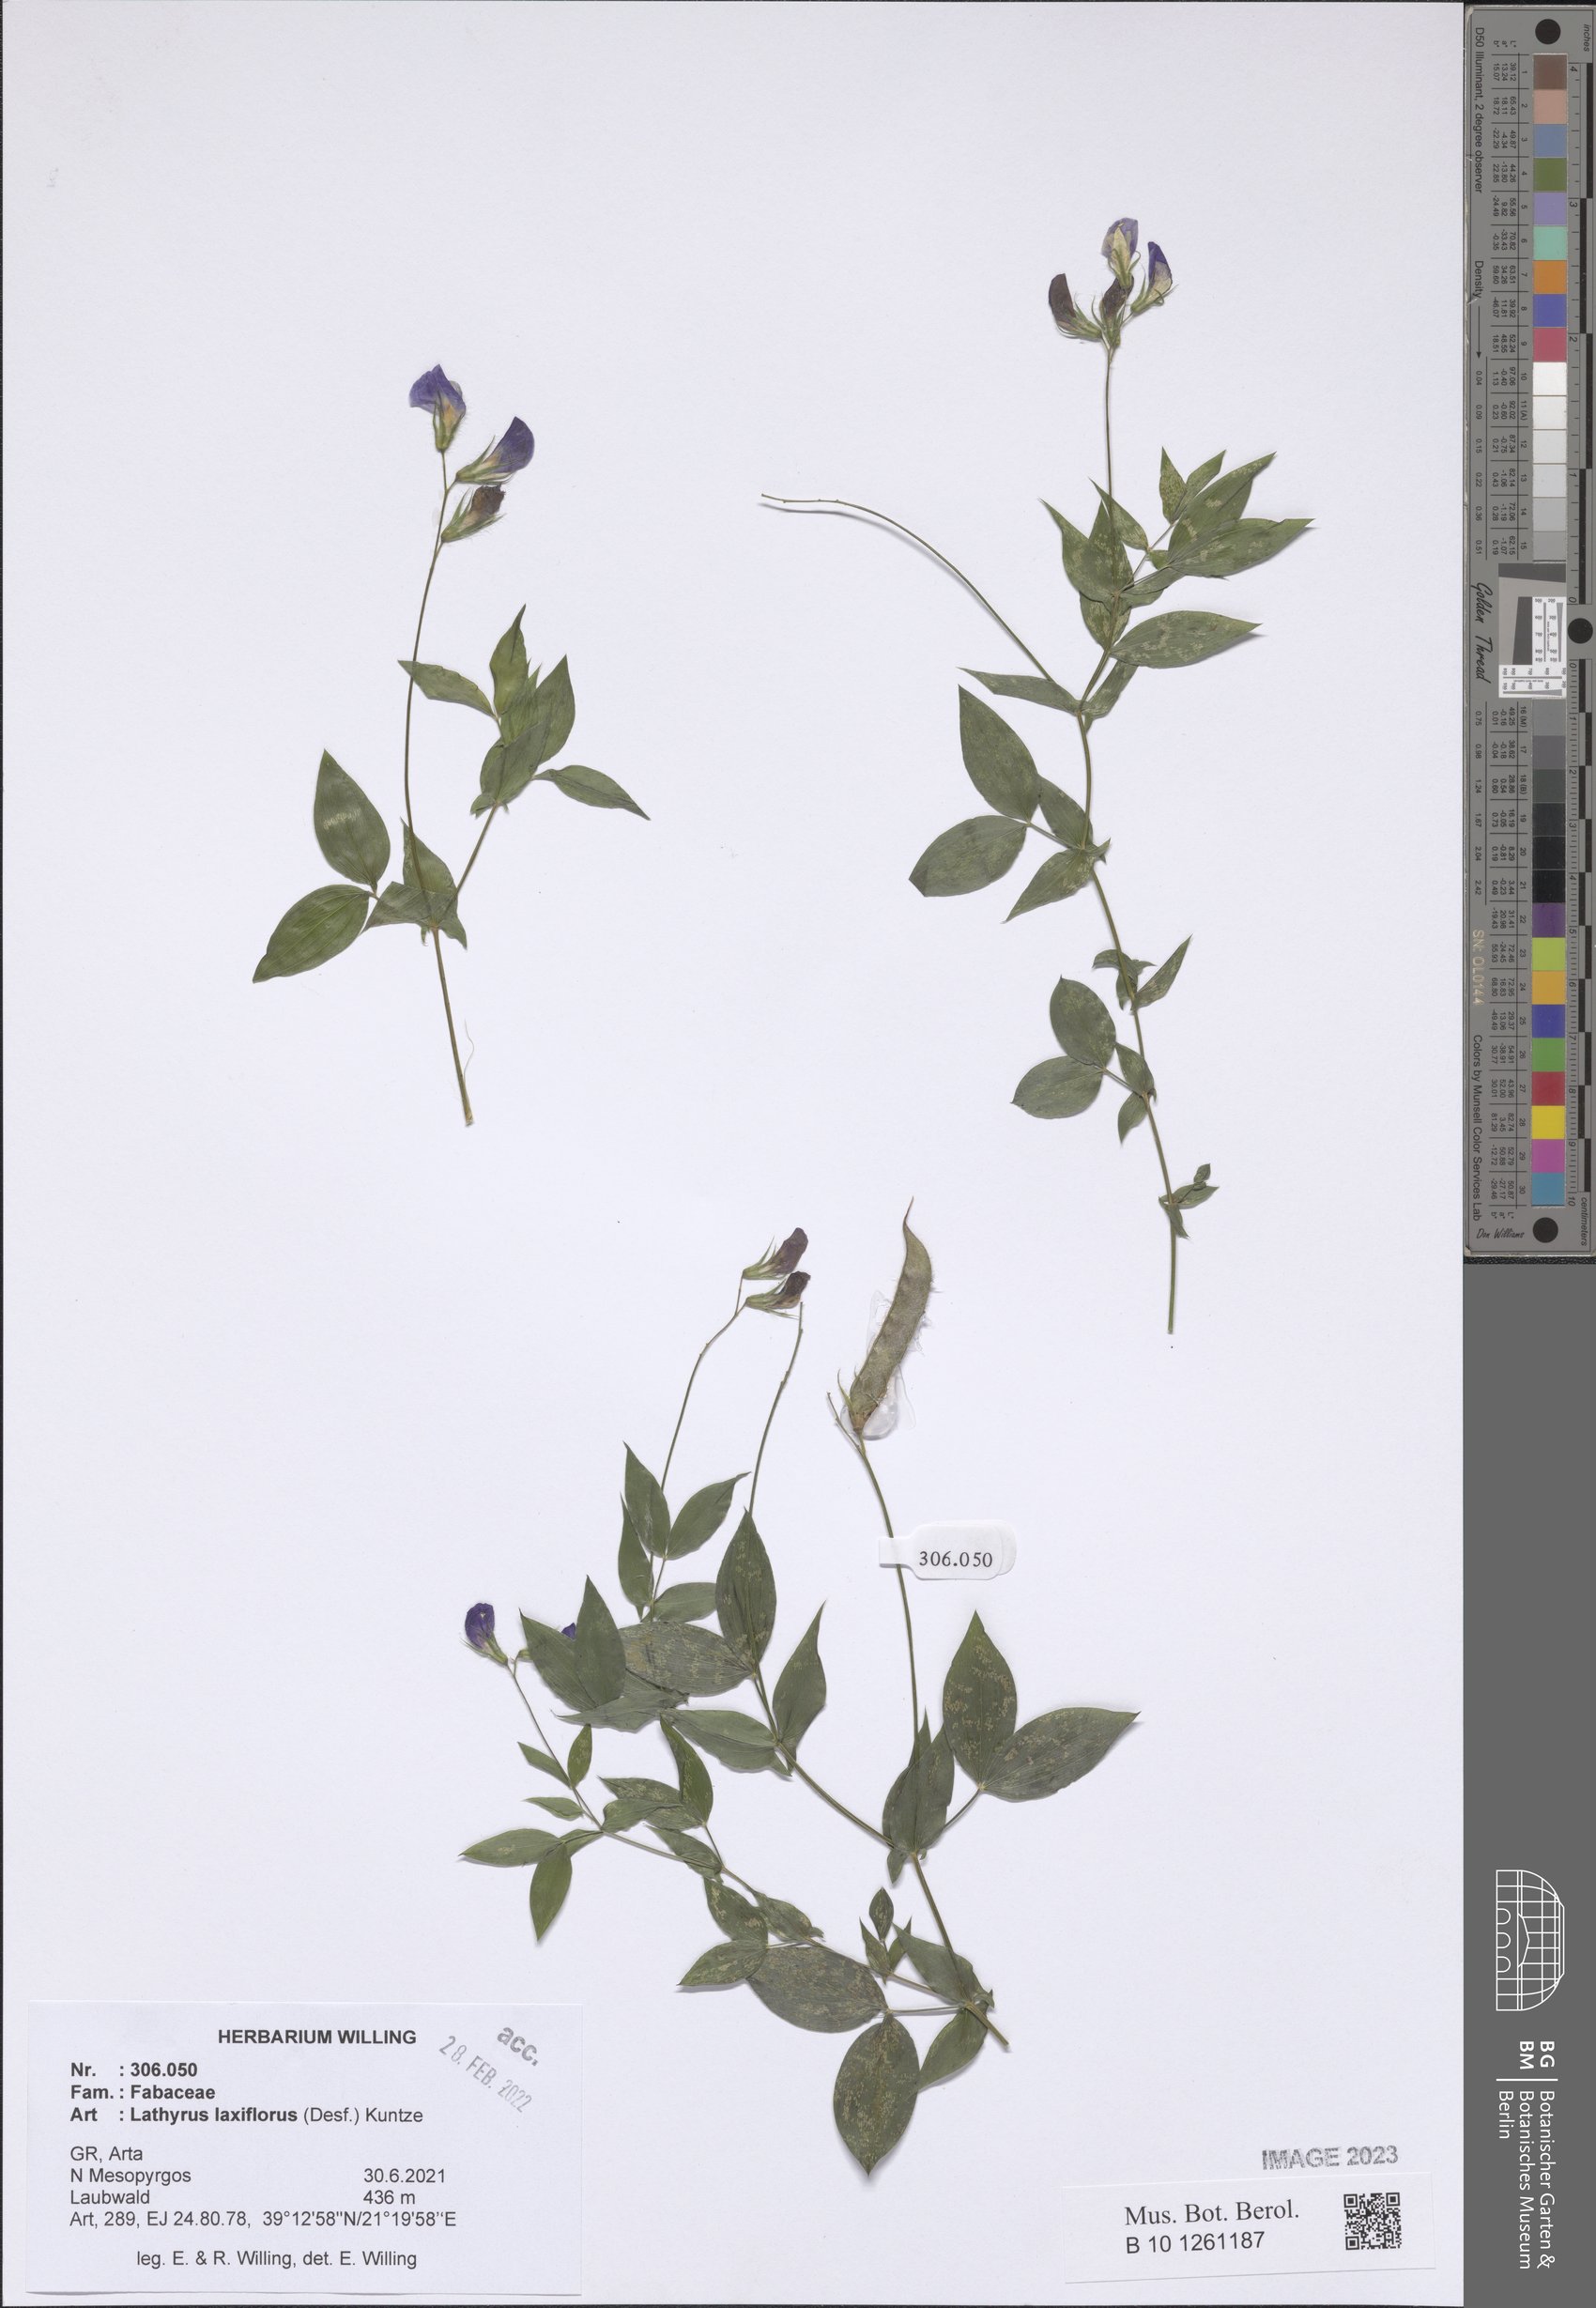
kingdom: Plantae
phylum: Tracheophyta
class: Magnoliopsida
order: Fabales
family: Fabaceae
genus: Lathyrus
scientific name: Lathyrus laxiflorus
